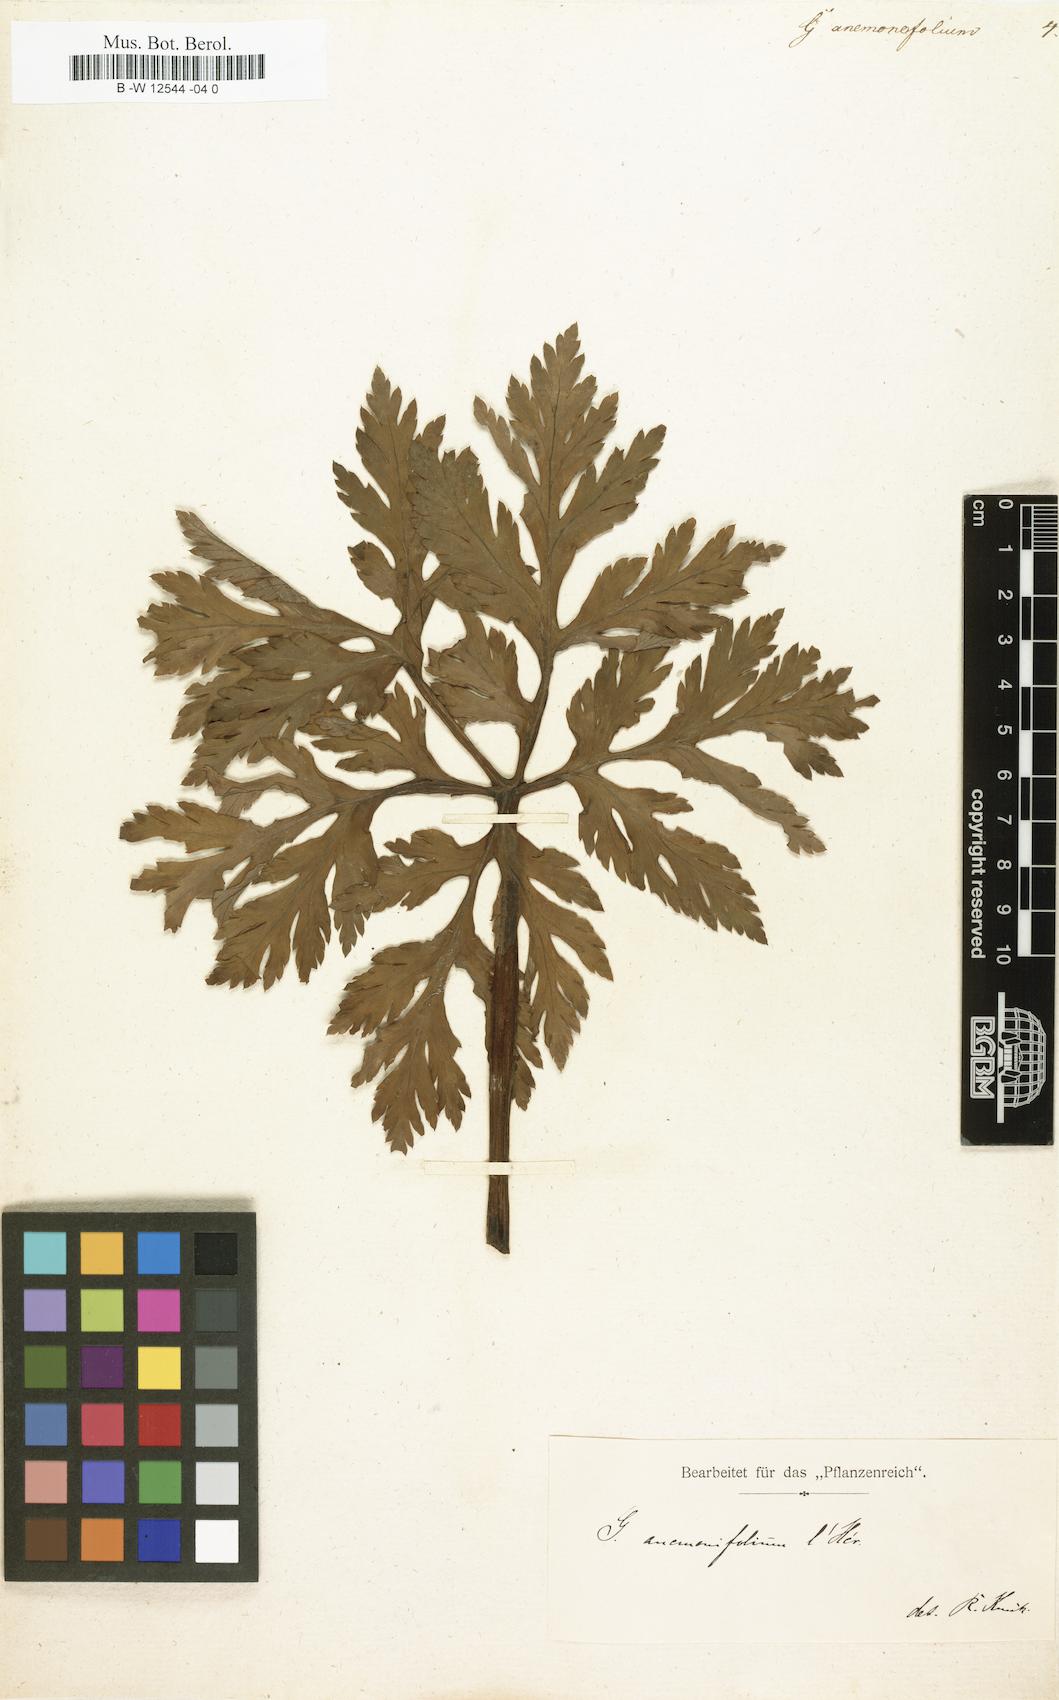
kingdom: Plantae
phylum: Tracheophyta
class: Magnoliopsida
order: Geraniales
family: Geraniaceae
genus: Geranium
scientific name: Geranium palmatum
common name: Canary island geranium
